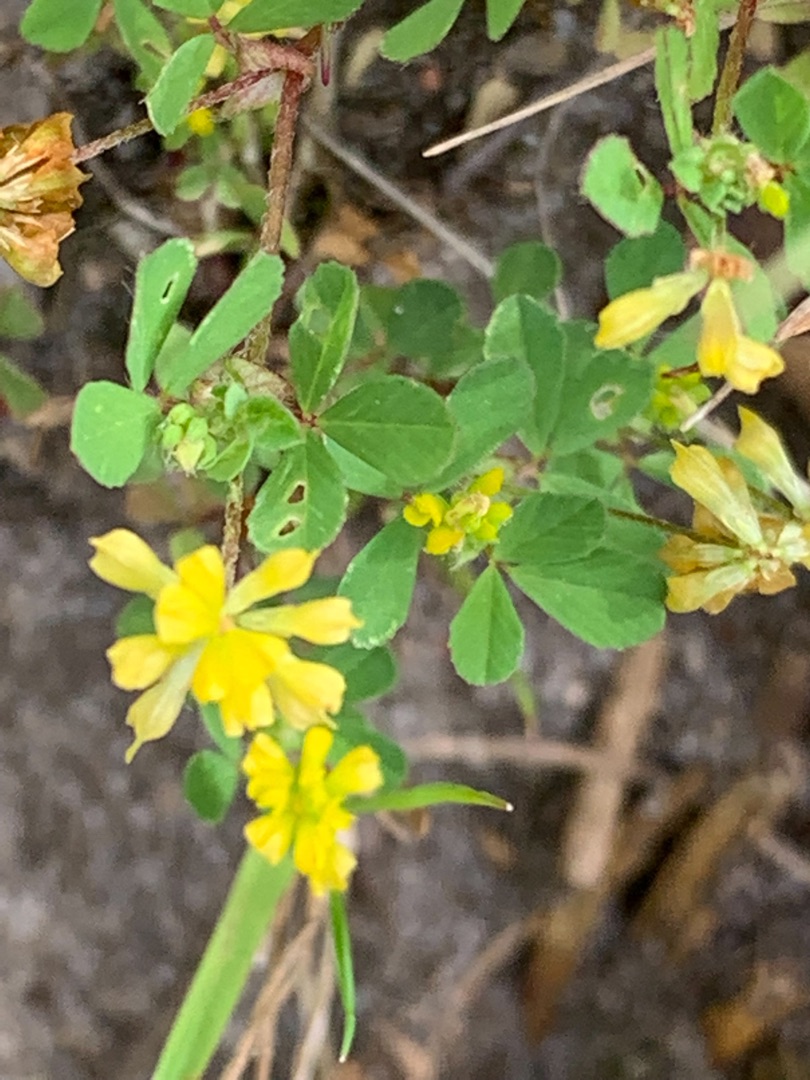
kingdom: Plantae
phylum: Tracheophyta
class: Magnoliopsida
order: Fabales
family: Fabaceae
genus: Trifolium
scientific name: Trifolium dubium
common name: Fin kløver
